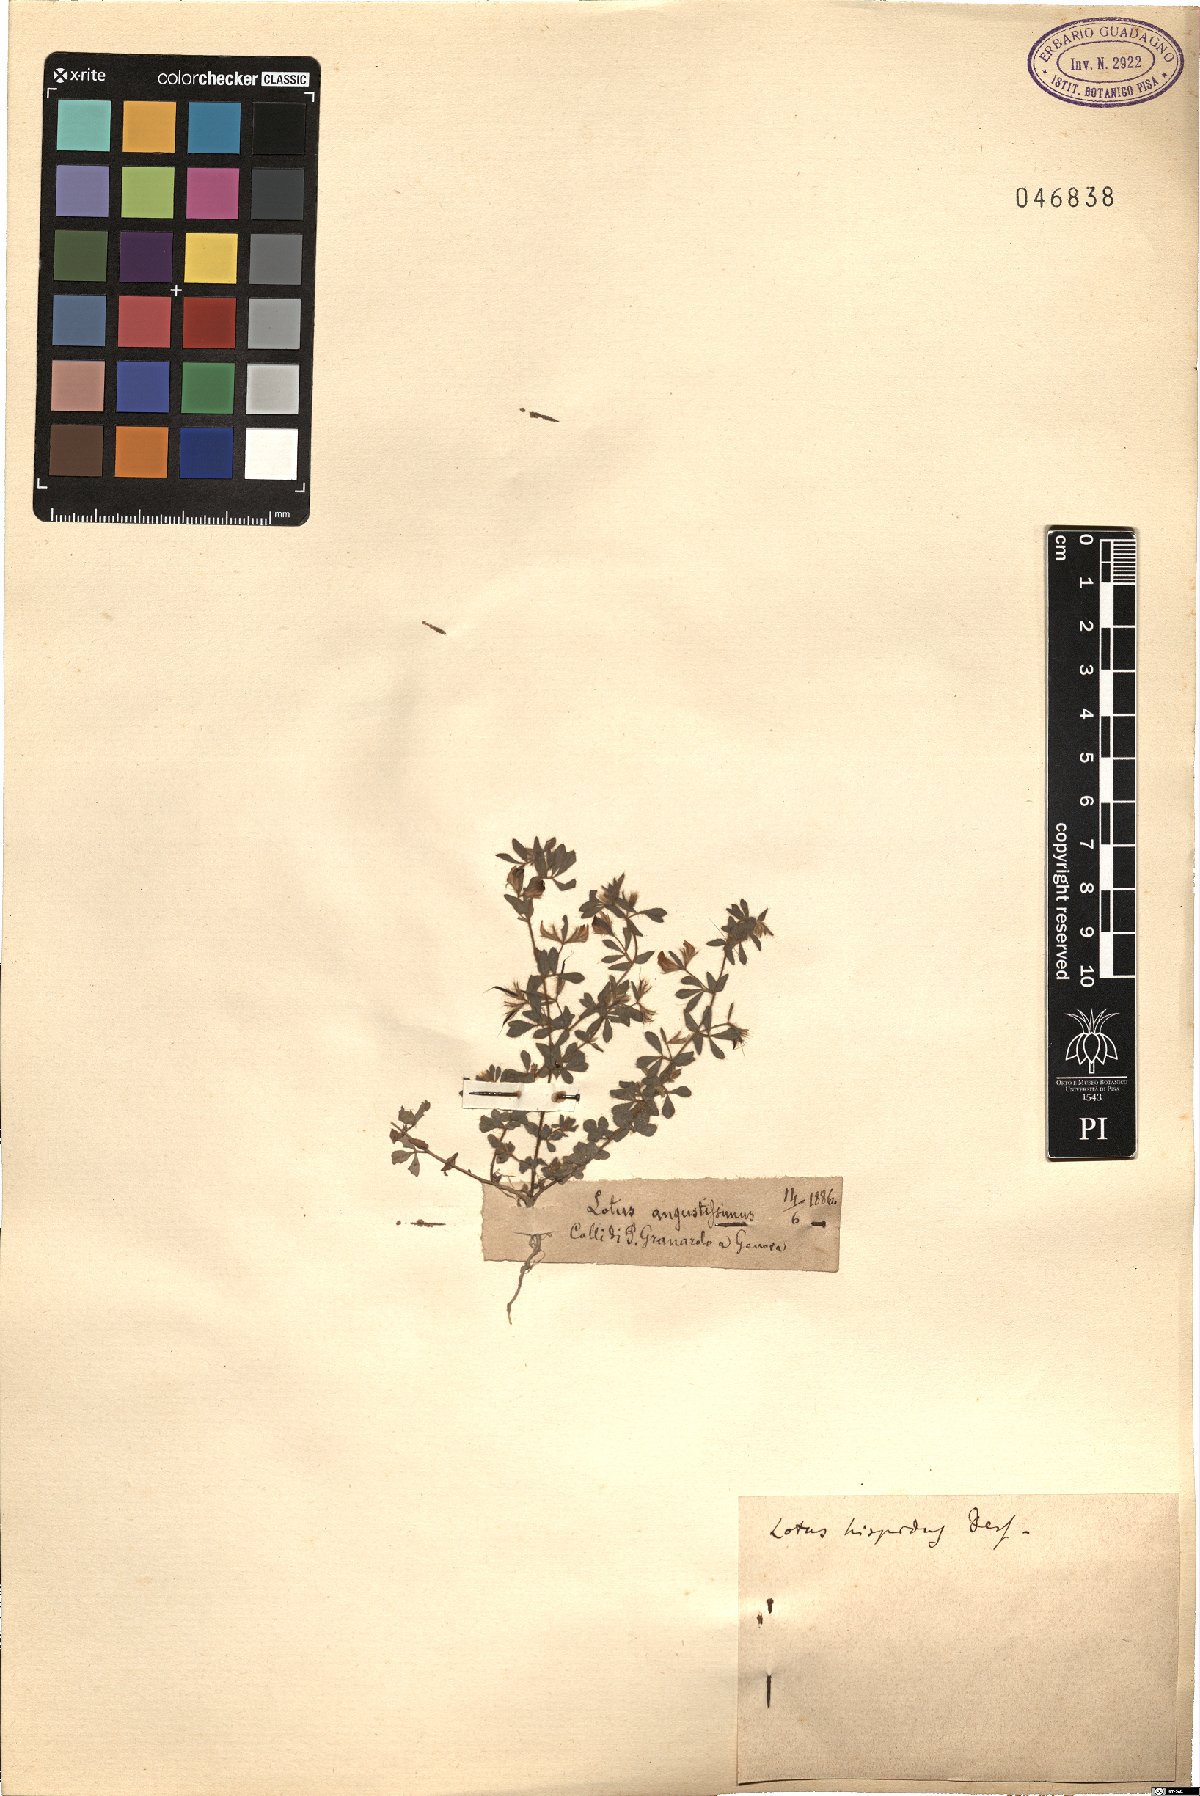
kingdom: Plantae
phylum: Tracheophyta
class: Magnoliopsida
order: Fabales
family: Fabaceae
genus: Lotus
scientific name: Lotus parviflorus
